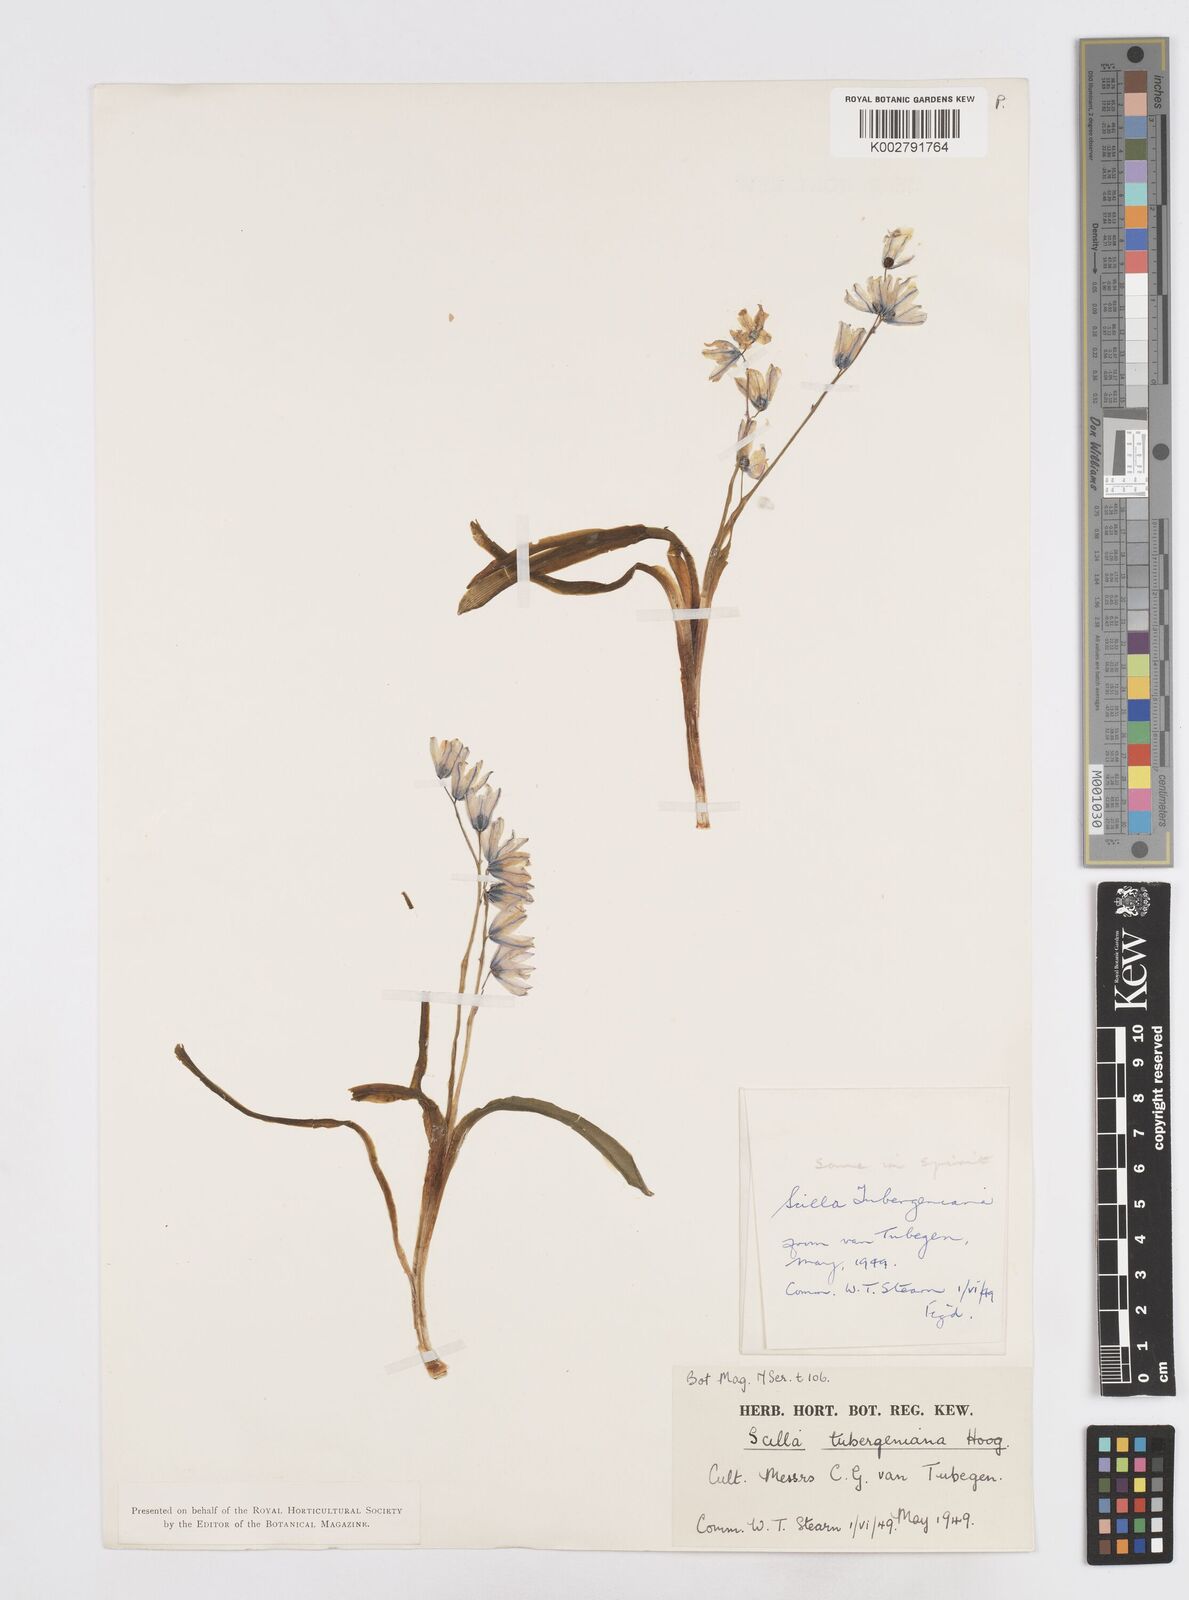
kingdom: Plantae
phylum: Tracheophyta
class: Liliopsida
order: Asparagales
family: Asparagaceae
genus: Scilla
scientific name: Scilla mischtschenkoana
